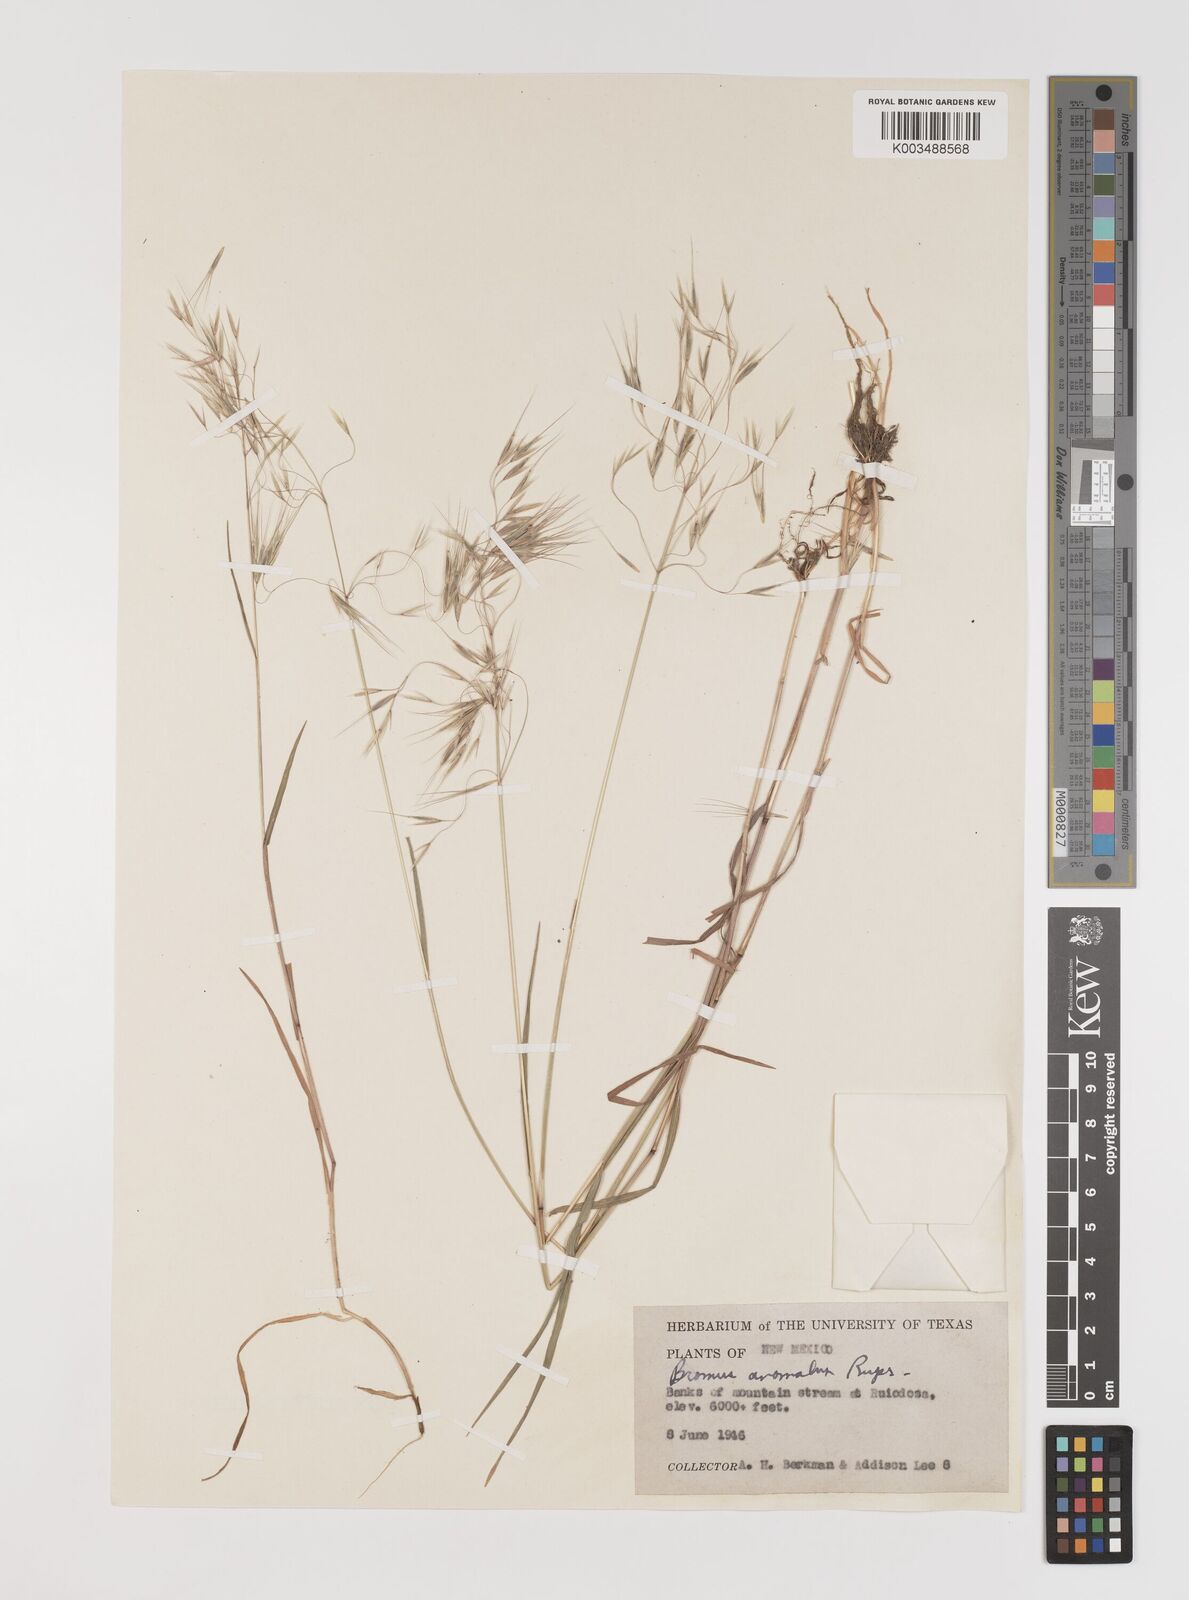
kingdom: Plantae
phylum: Tracheophyta
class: Liliopsida
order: Poales
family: Poaceae
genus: Bromus
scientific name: Bromus tectorum
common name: Cheatgrass
